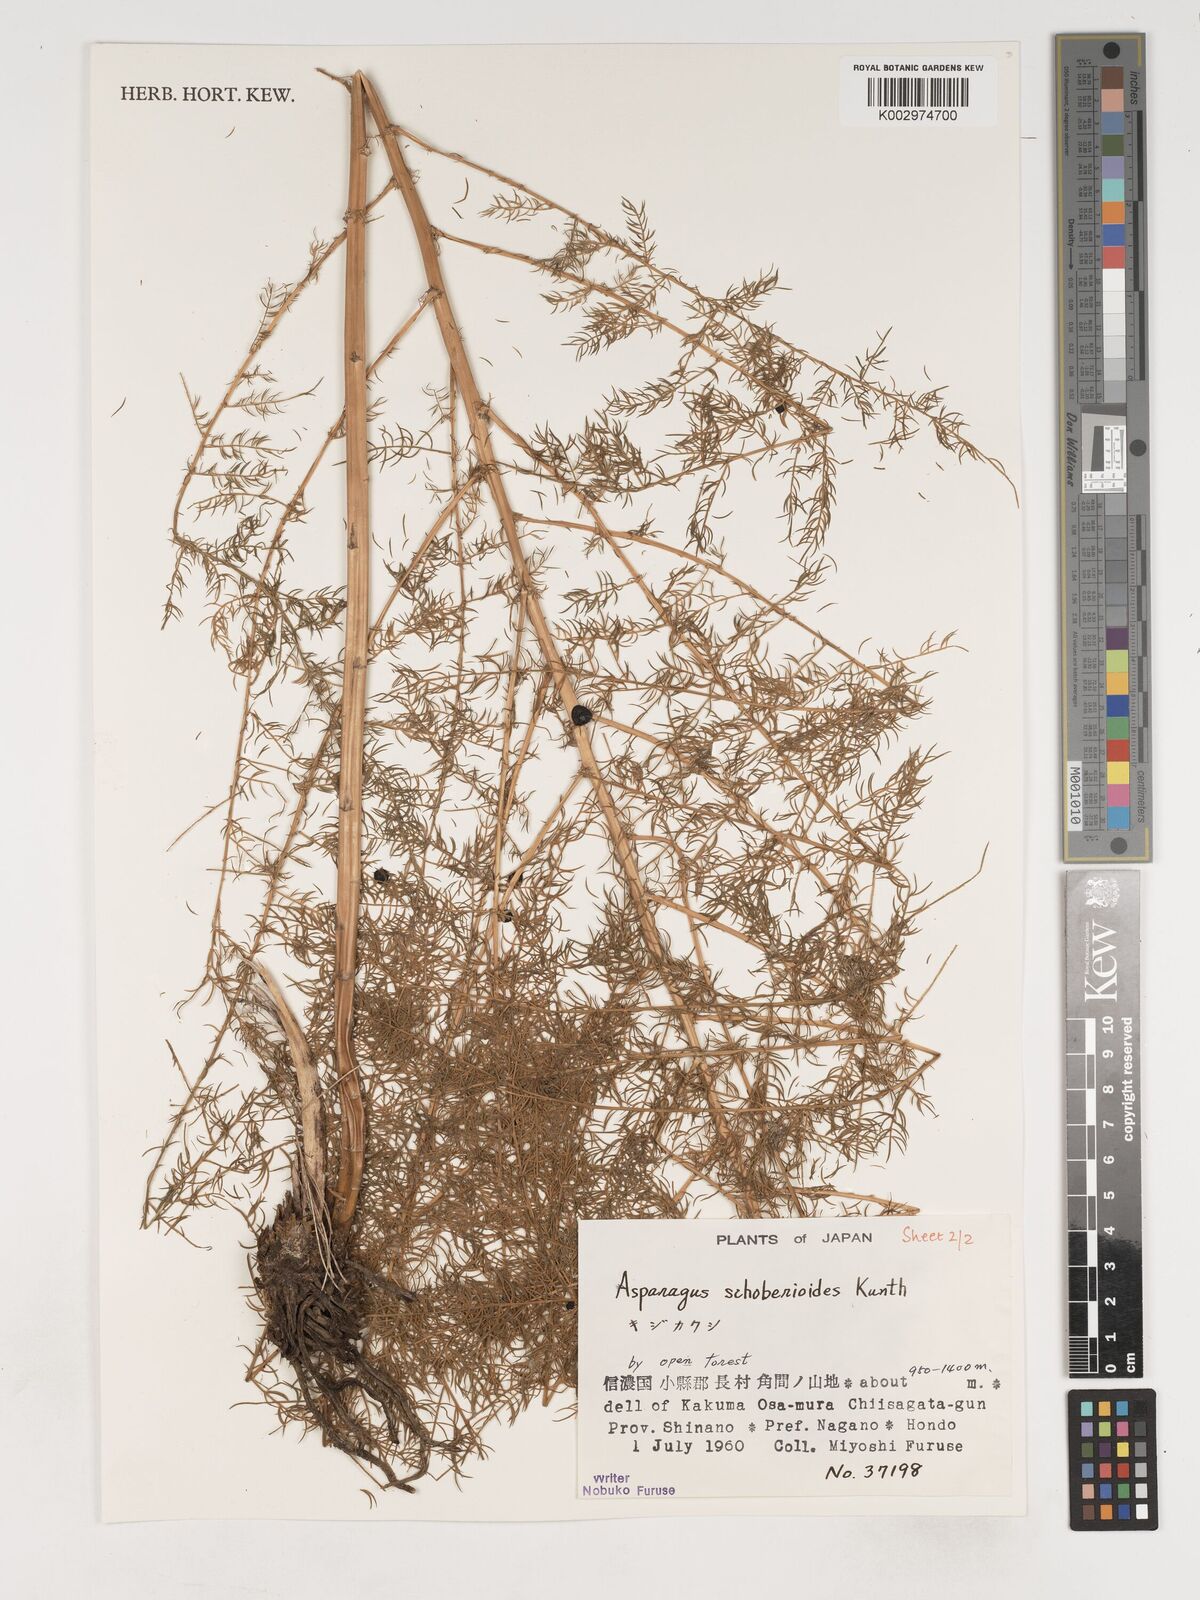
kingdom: Plantae
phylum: Tracheophyta
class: Liliopsida
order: Asparagales
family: Asparagaceae
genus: Asparagus
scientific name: Asparagus schoberioides
